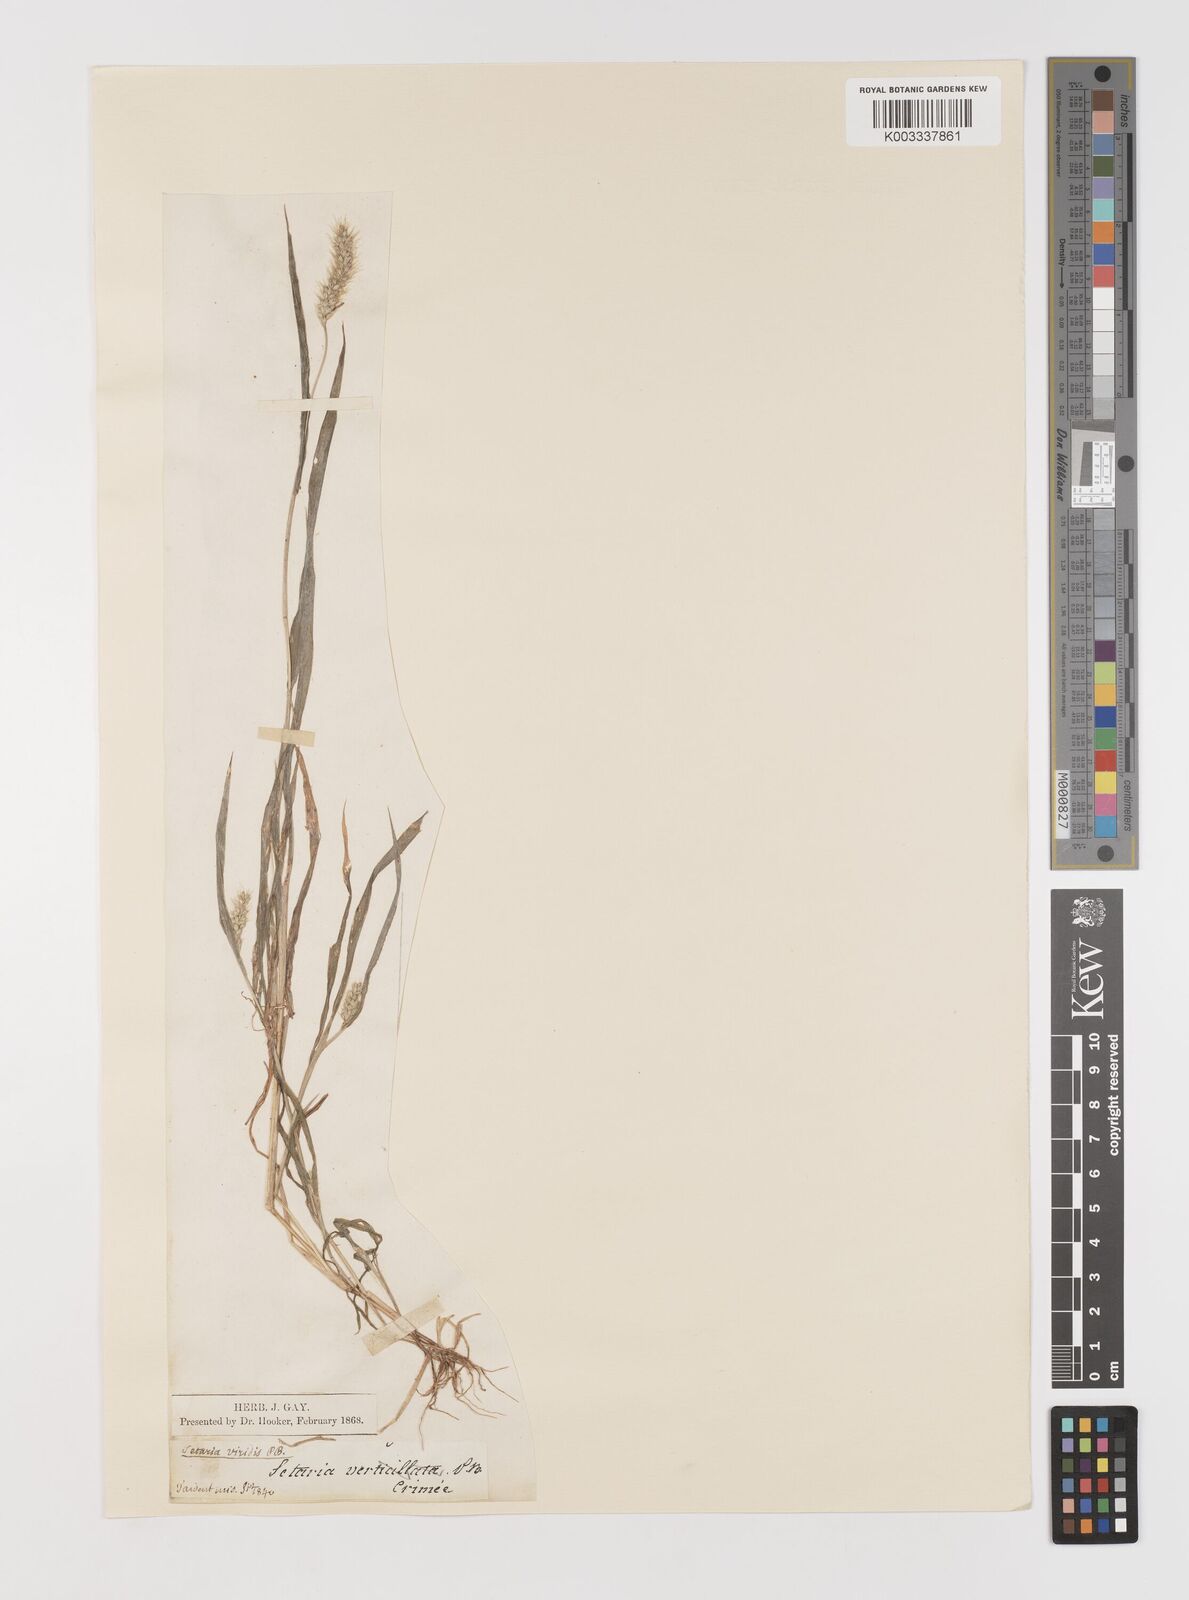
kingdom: Plantae
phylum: Tracheophyta
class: Liliopsida
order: Poales
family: Poaceae
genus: Setaria
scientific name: Setaria viridis
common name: Green bristlegrass
